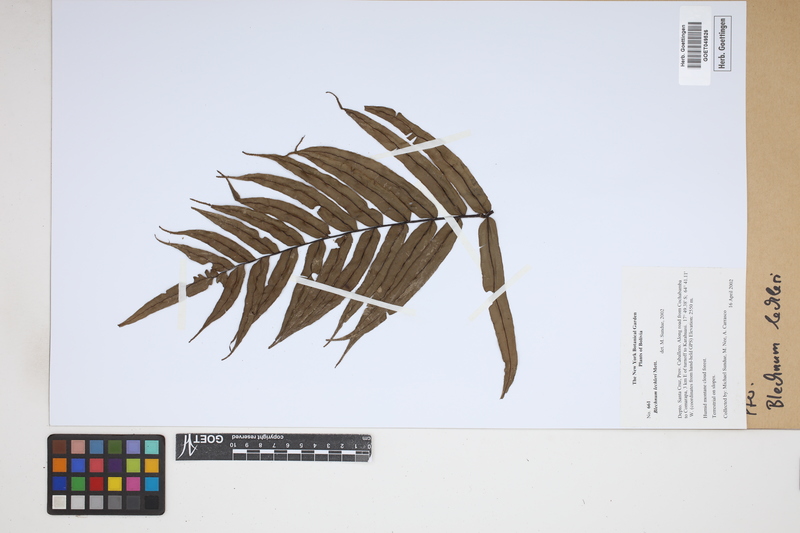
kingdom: Plantae
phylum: Tracheophyta
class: Polypodiopsida
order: Polypodiales
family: Blechnaceae
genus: Parablechnum
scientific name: Parablechnum lechleri
